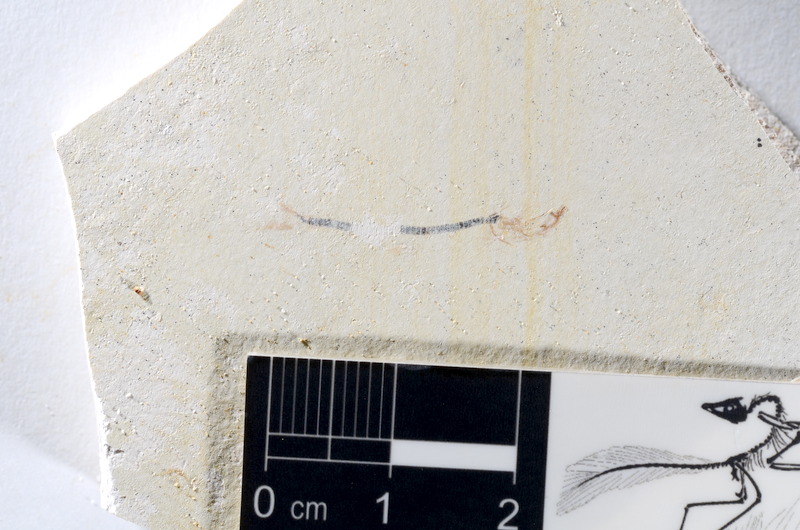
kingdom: Animalia
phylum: Chordata
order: Salmoniformes
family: Orthogonikleithridae
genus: Orthogonikleithrus
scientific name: Orthogonikleithrus hoelli
